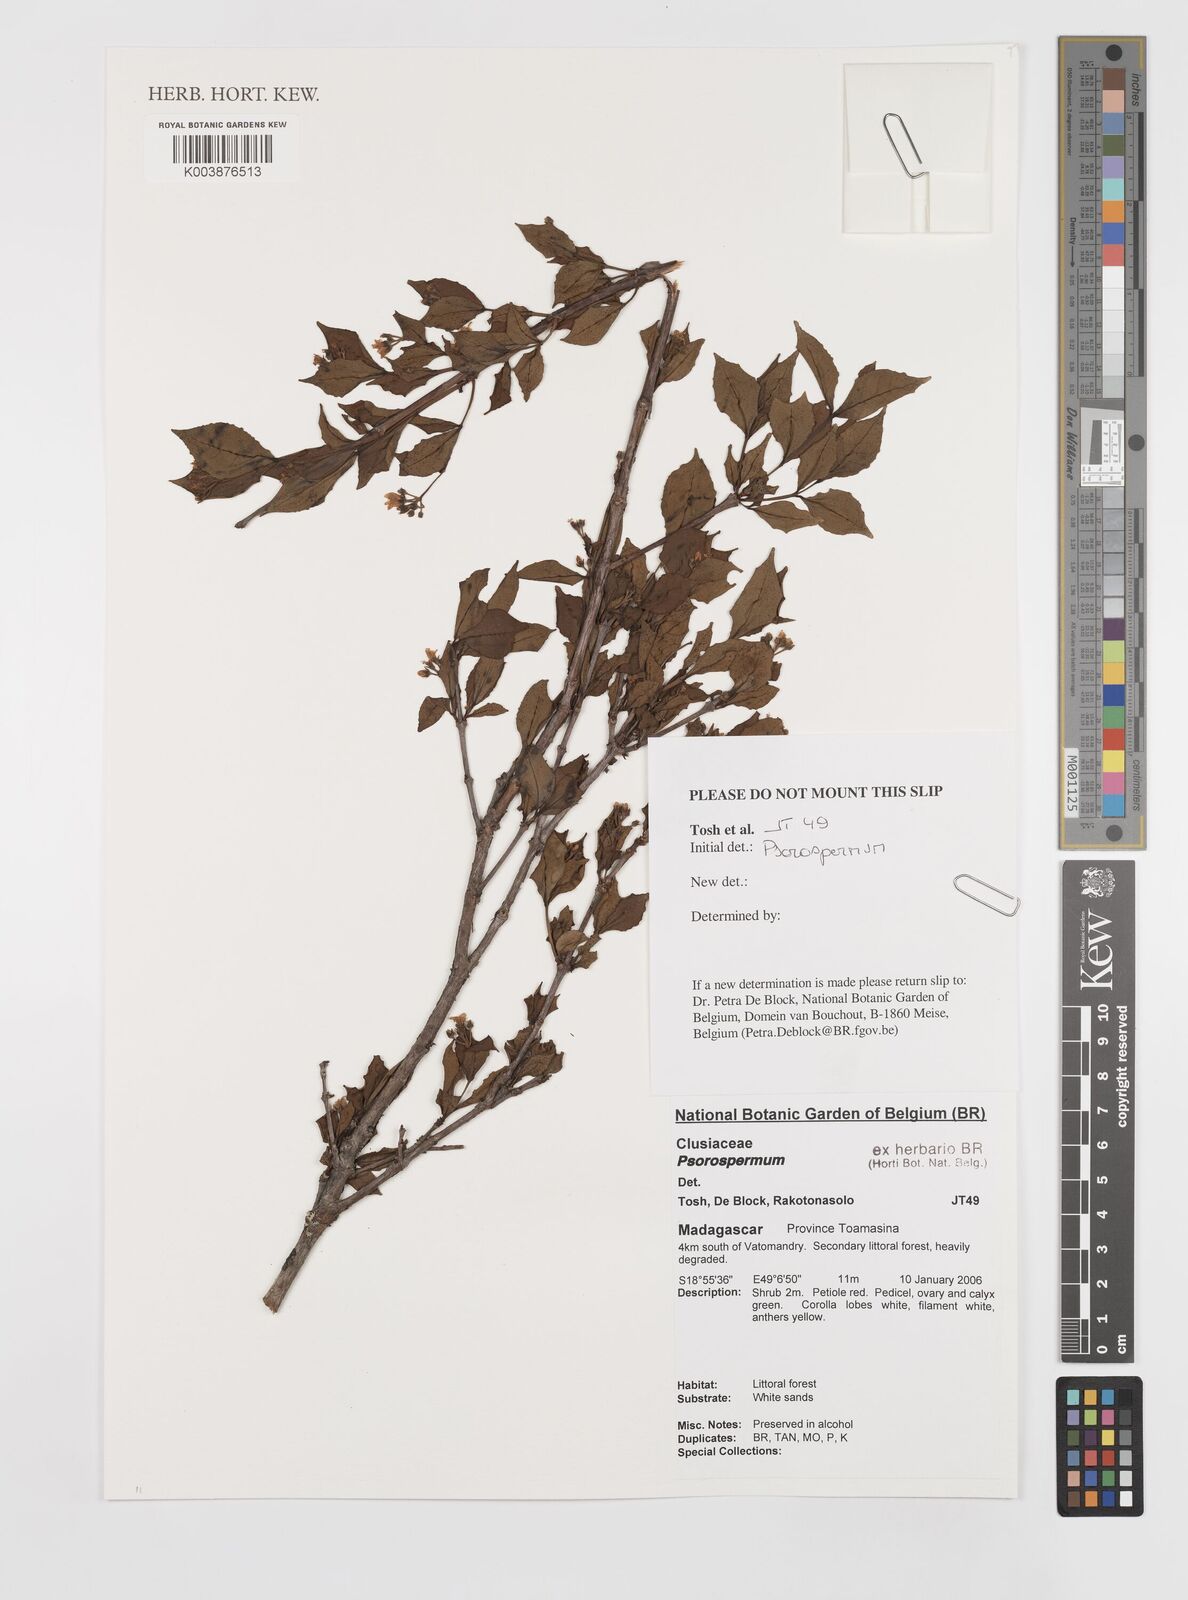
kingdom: Plantae
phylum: Tracheophyta
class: Magnoliopsida
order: Malpighiales
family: Hypericaceae
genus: Psorospermum
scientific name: Psorospermum
